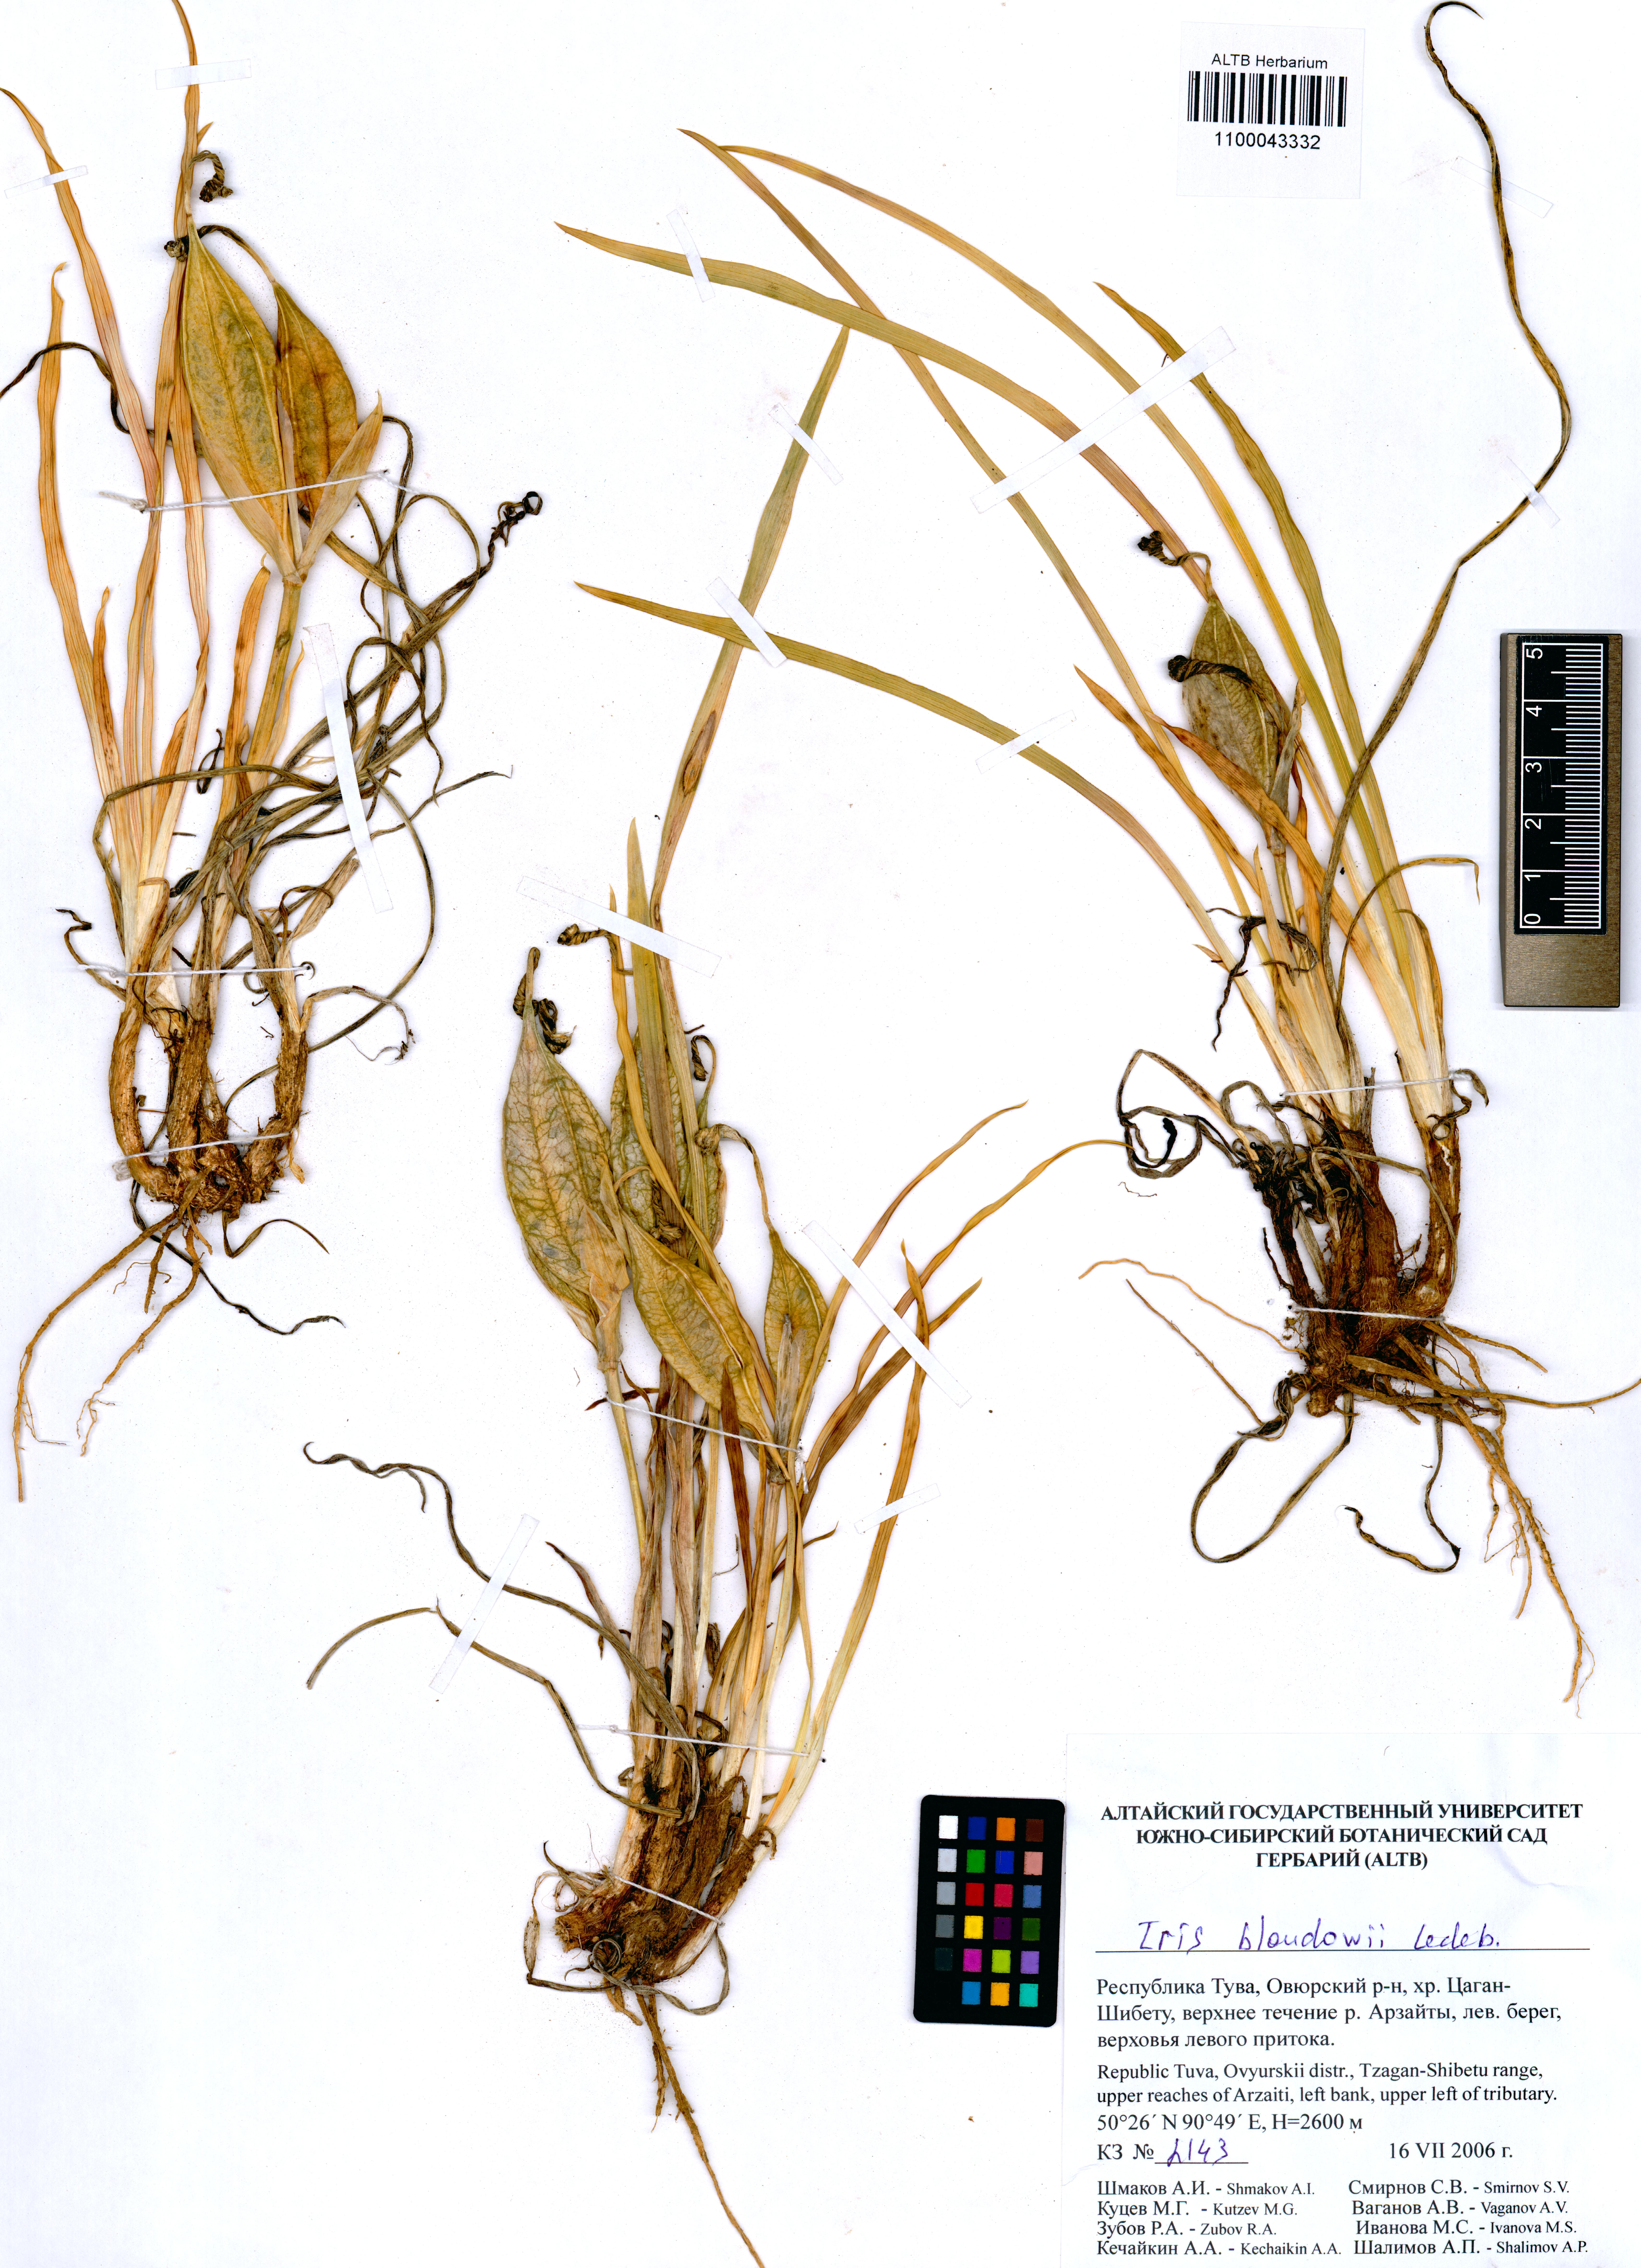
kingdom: Plantae
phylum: Tracheophyta
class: Liliopsida
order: Asparagales
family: Iridaceae
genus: Iris
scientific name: Iris humilis
